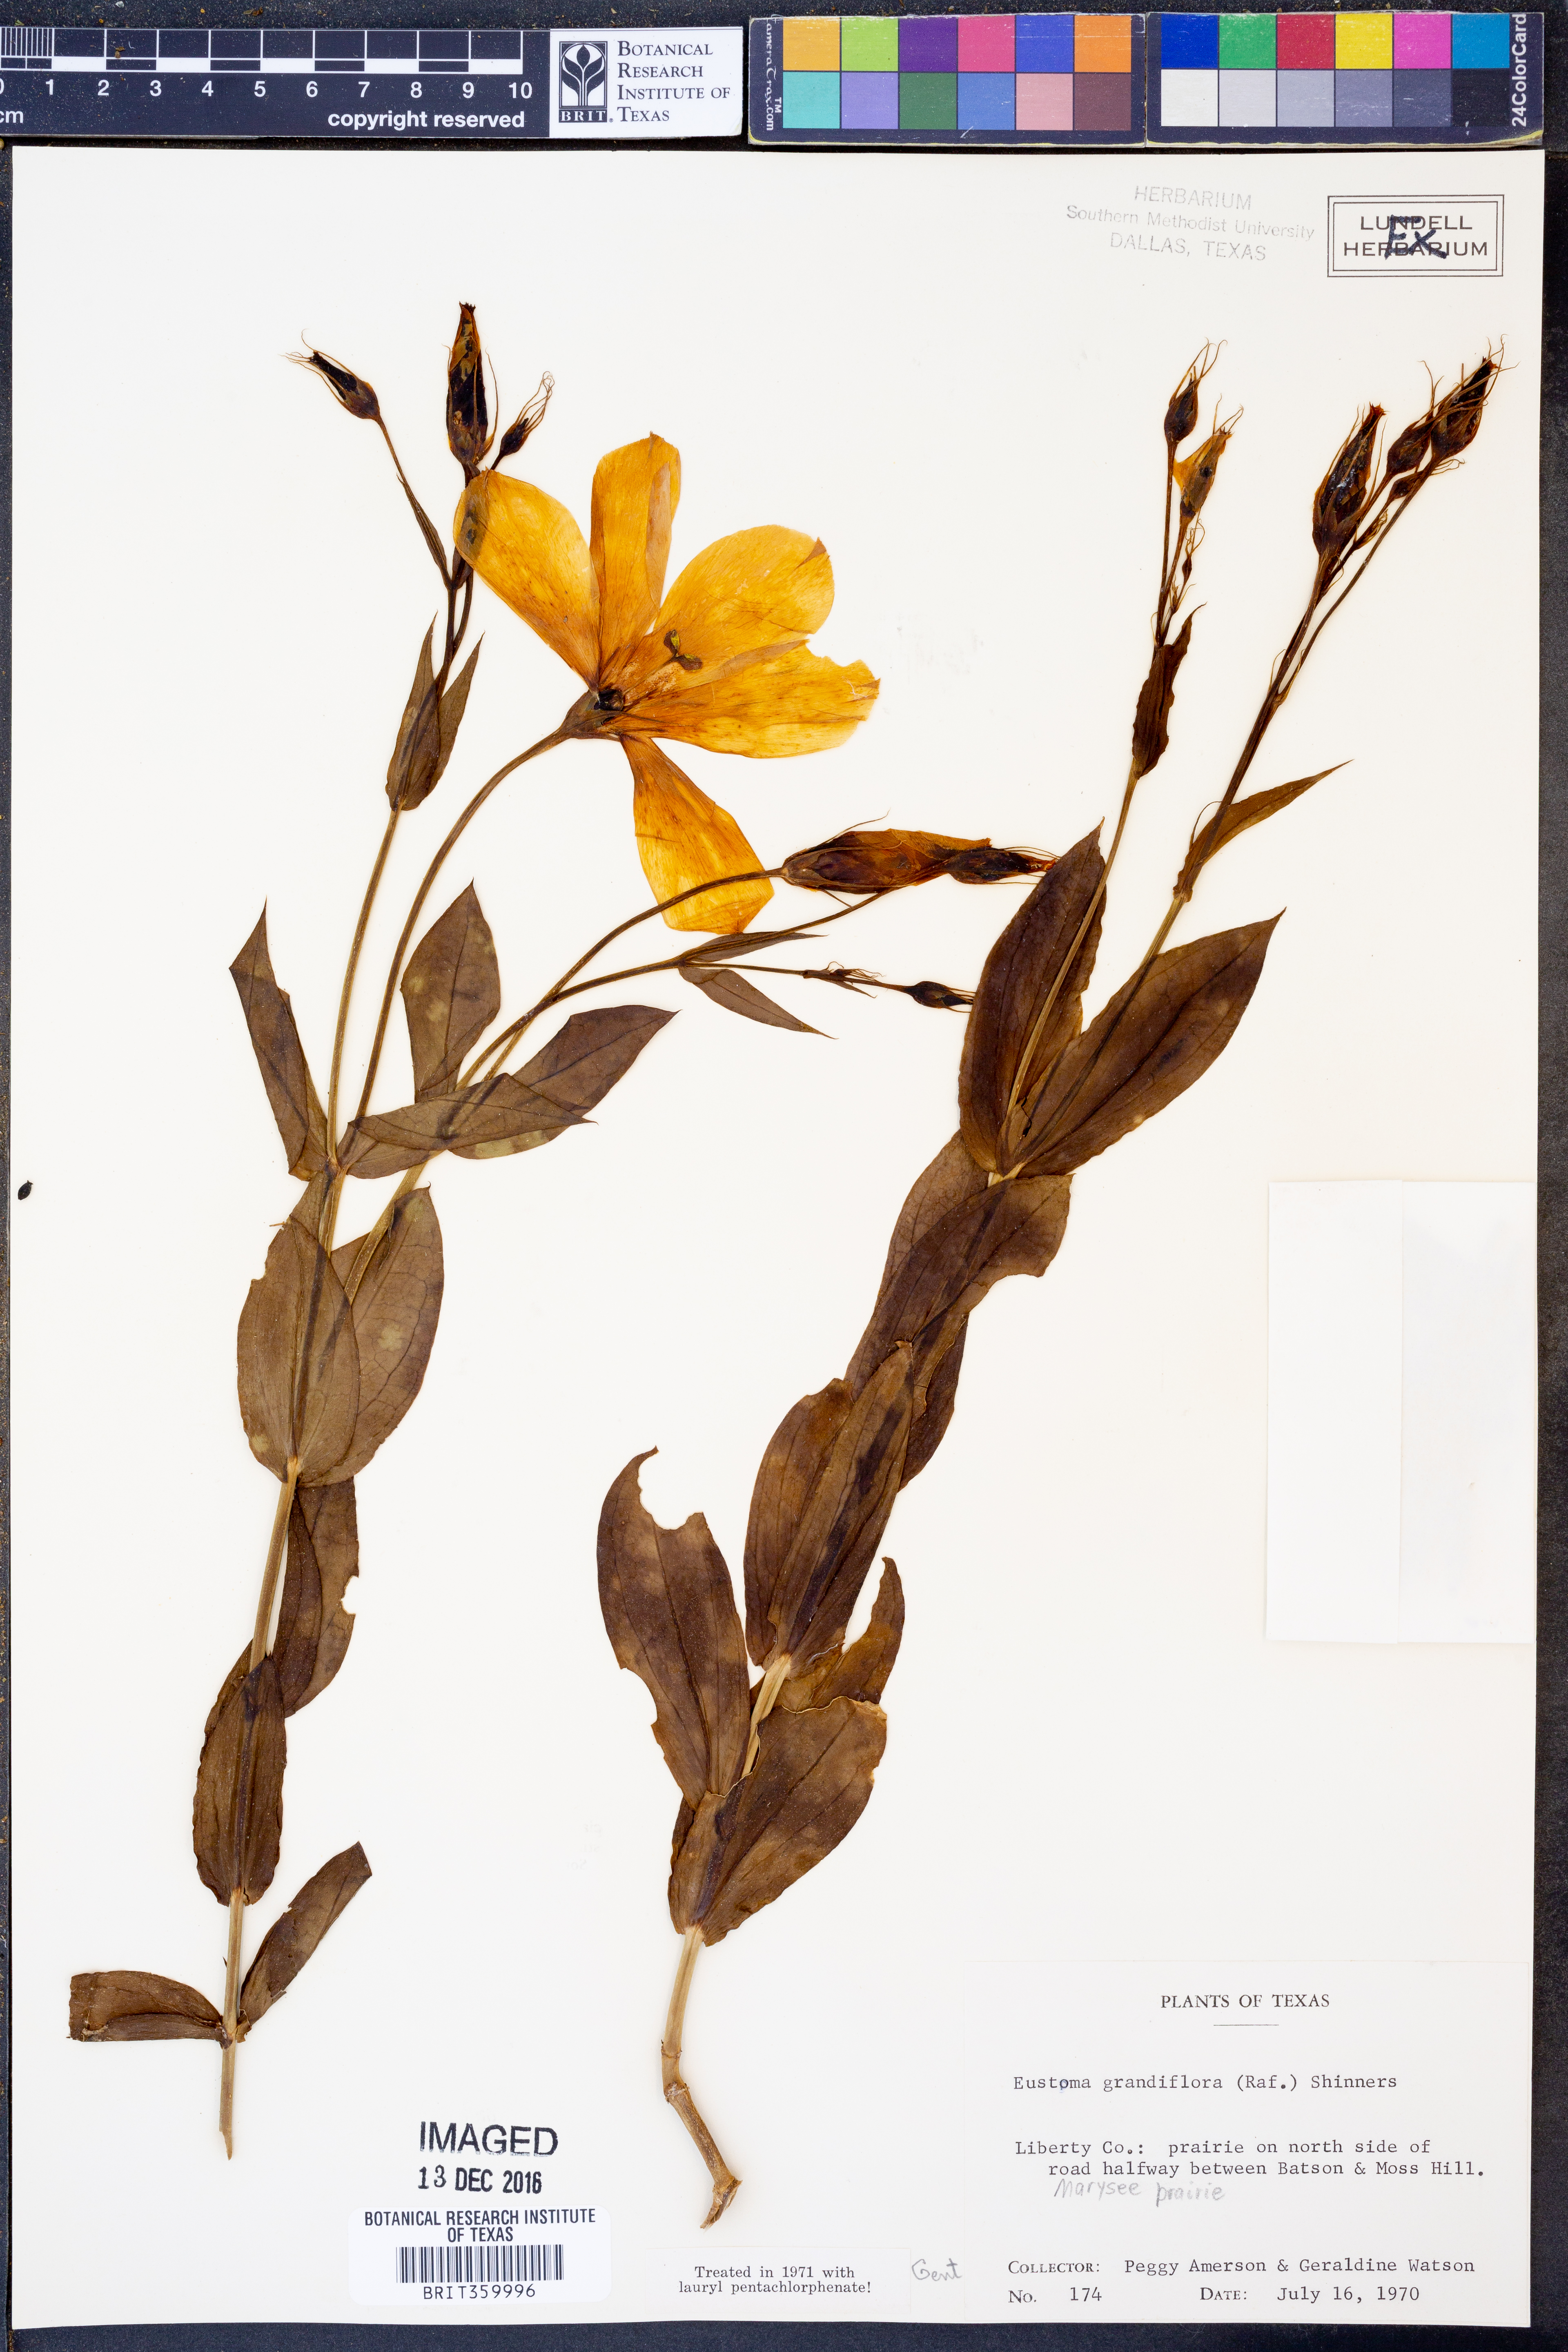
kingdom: Plantae
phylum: Tracheophyta
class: Magnoliopsida
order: Gentianales
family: Gentianaceae
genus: Eustoma
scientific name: Eustoma russellianum
